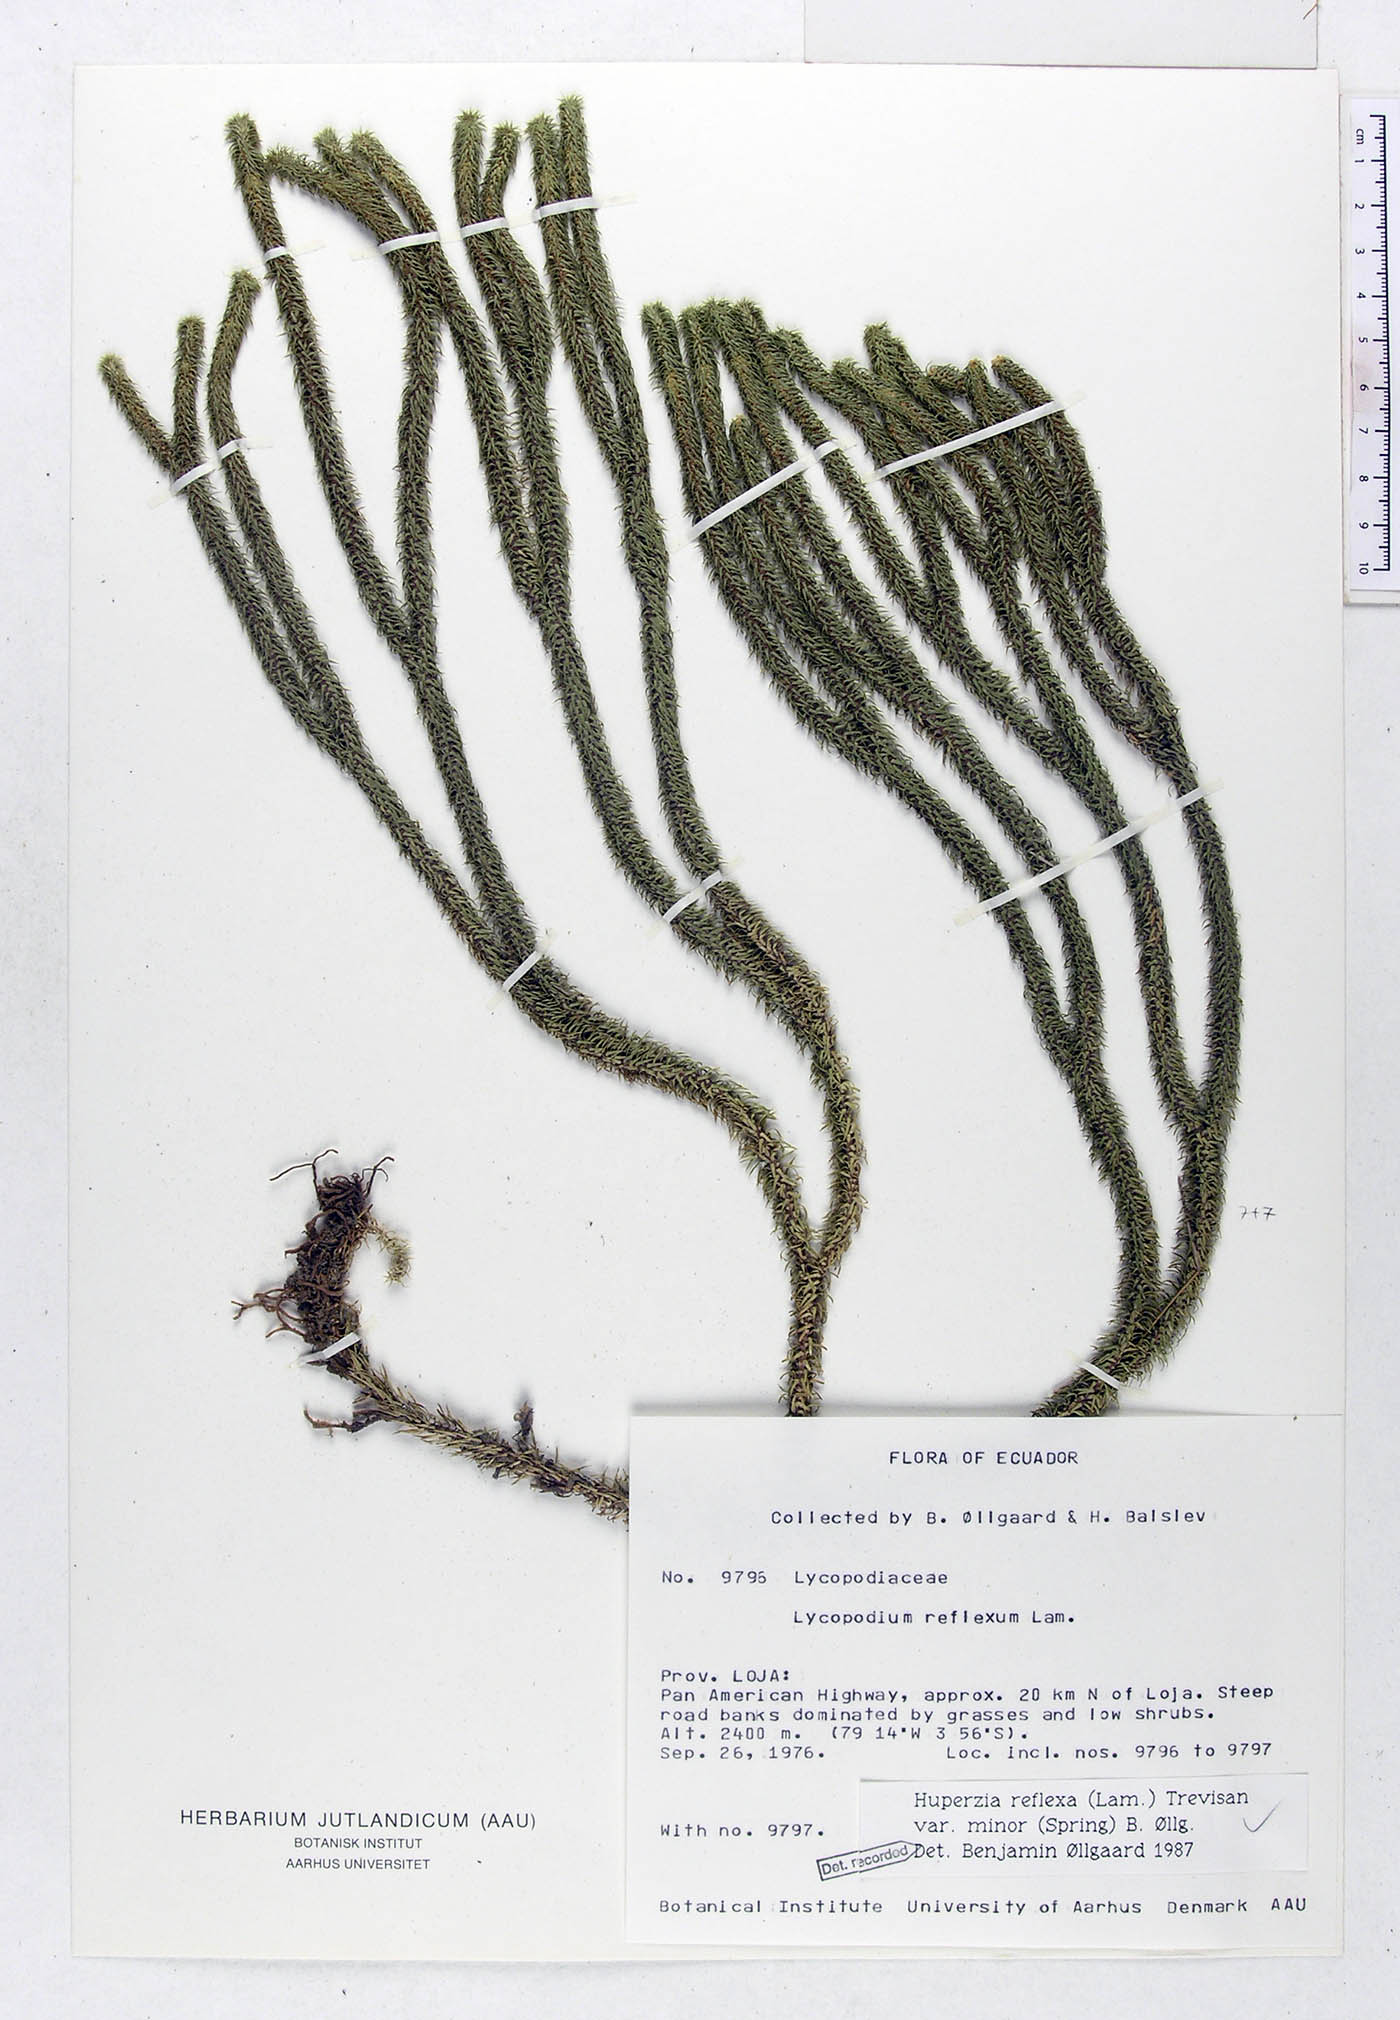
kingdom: Plantae
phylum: Tracheophyta
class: Lycopodiopsida
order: Lycopodiales
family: Lycopodiaceae
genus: Phlegmariurus
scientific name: Phlegmariurus reflexus
